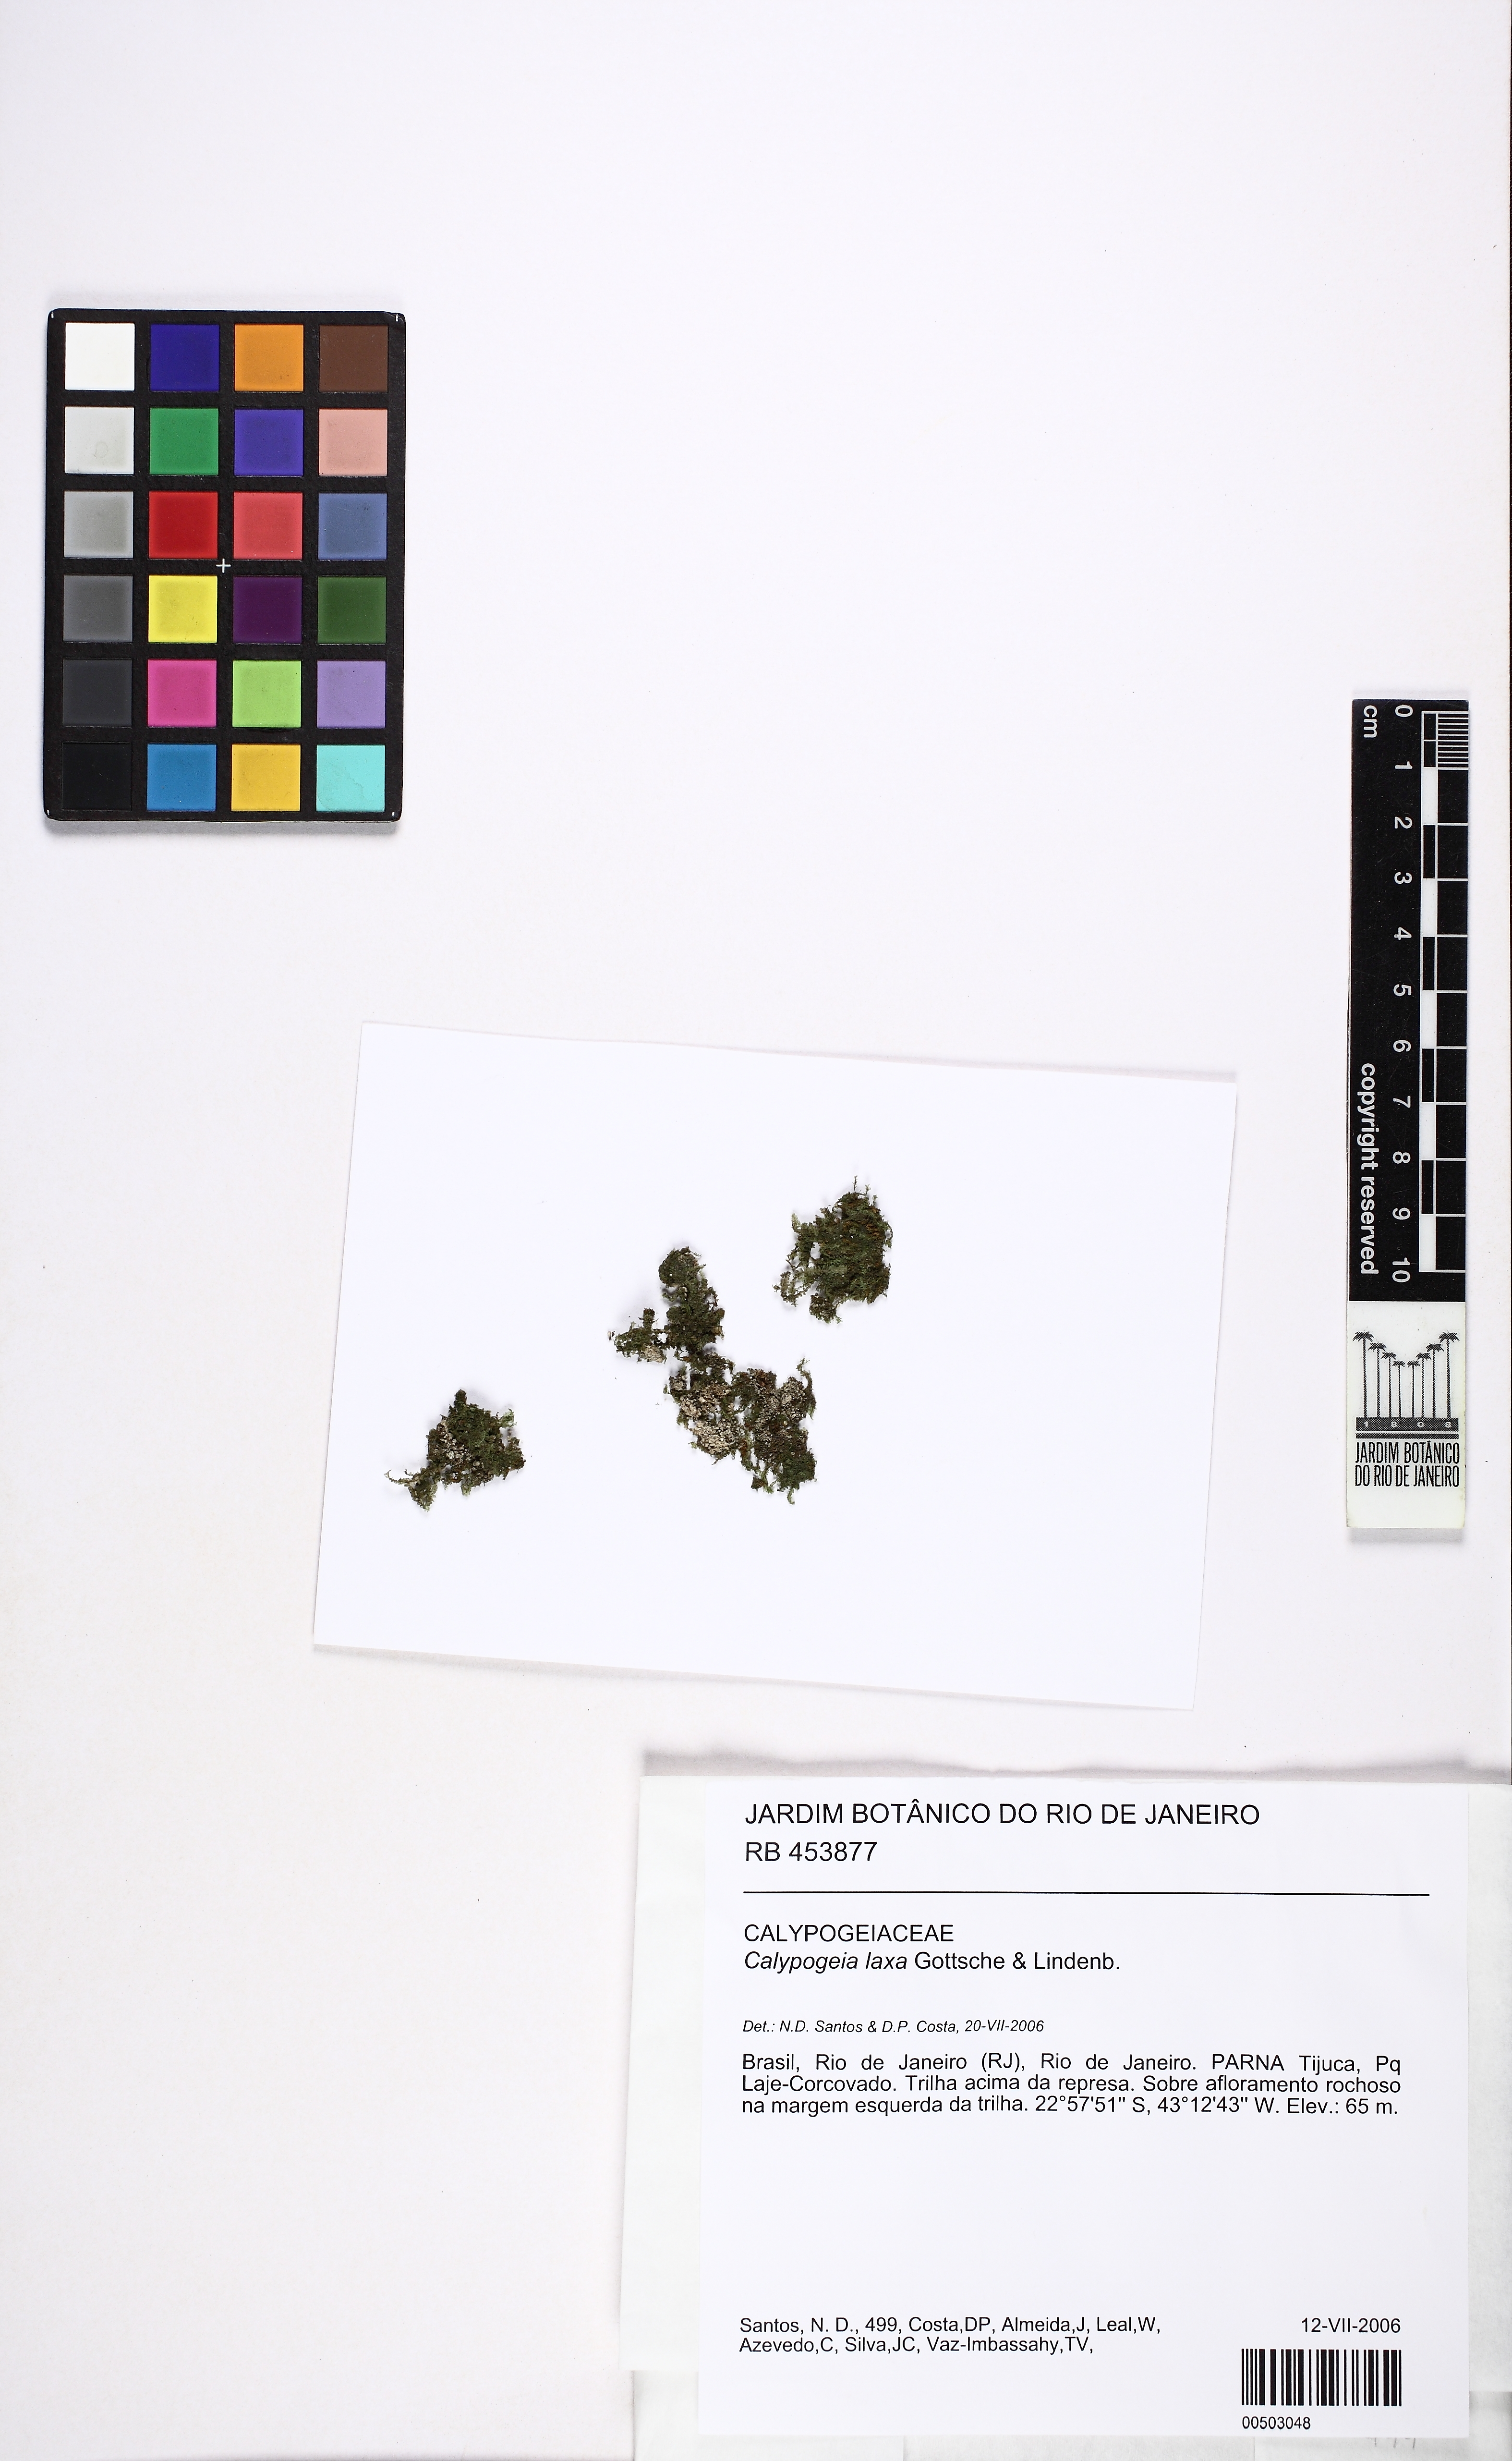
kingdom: Plantae
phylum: Marchantiophyta
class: Jungermanniopsida
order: Jungermanniales
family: Calypogeiaceae
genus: Calypogeia
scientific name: Calypogeia laxa
